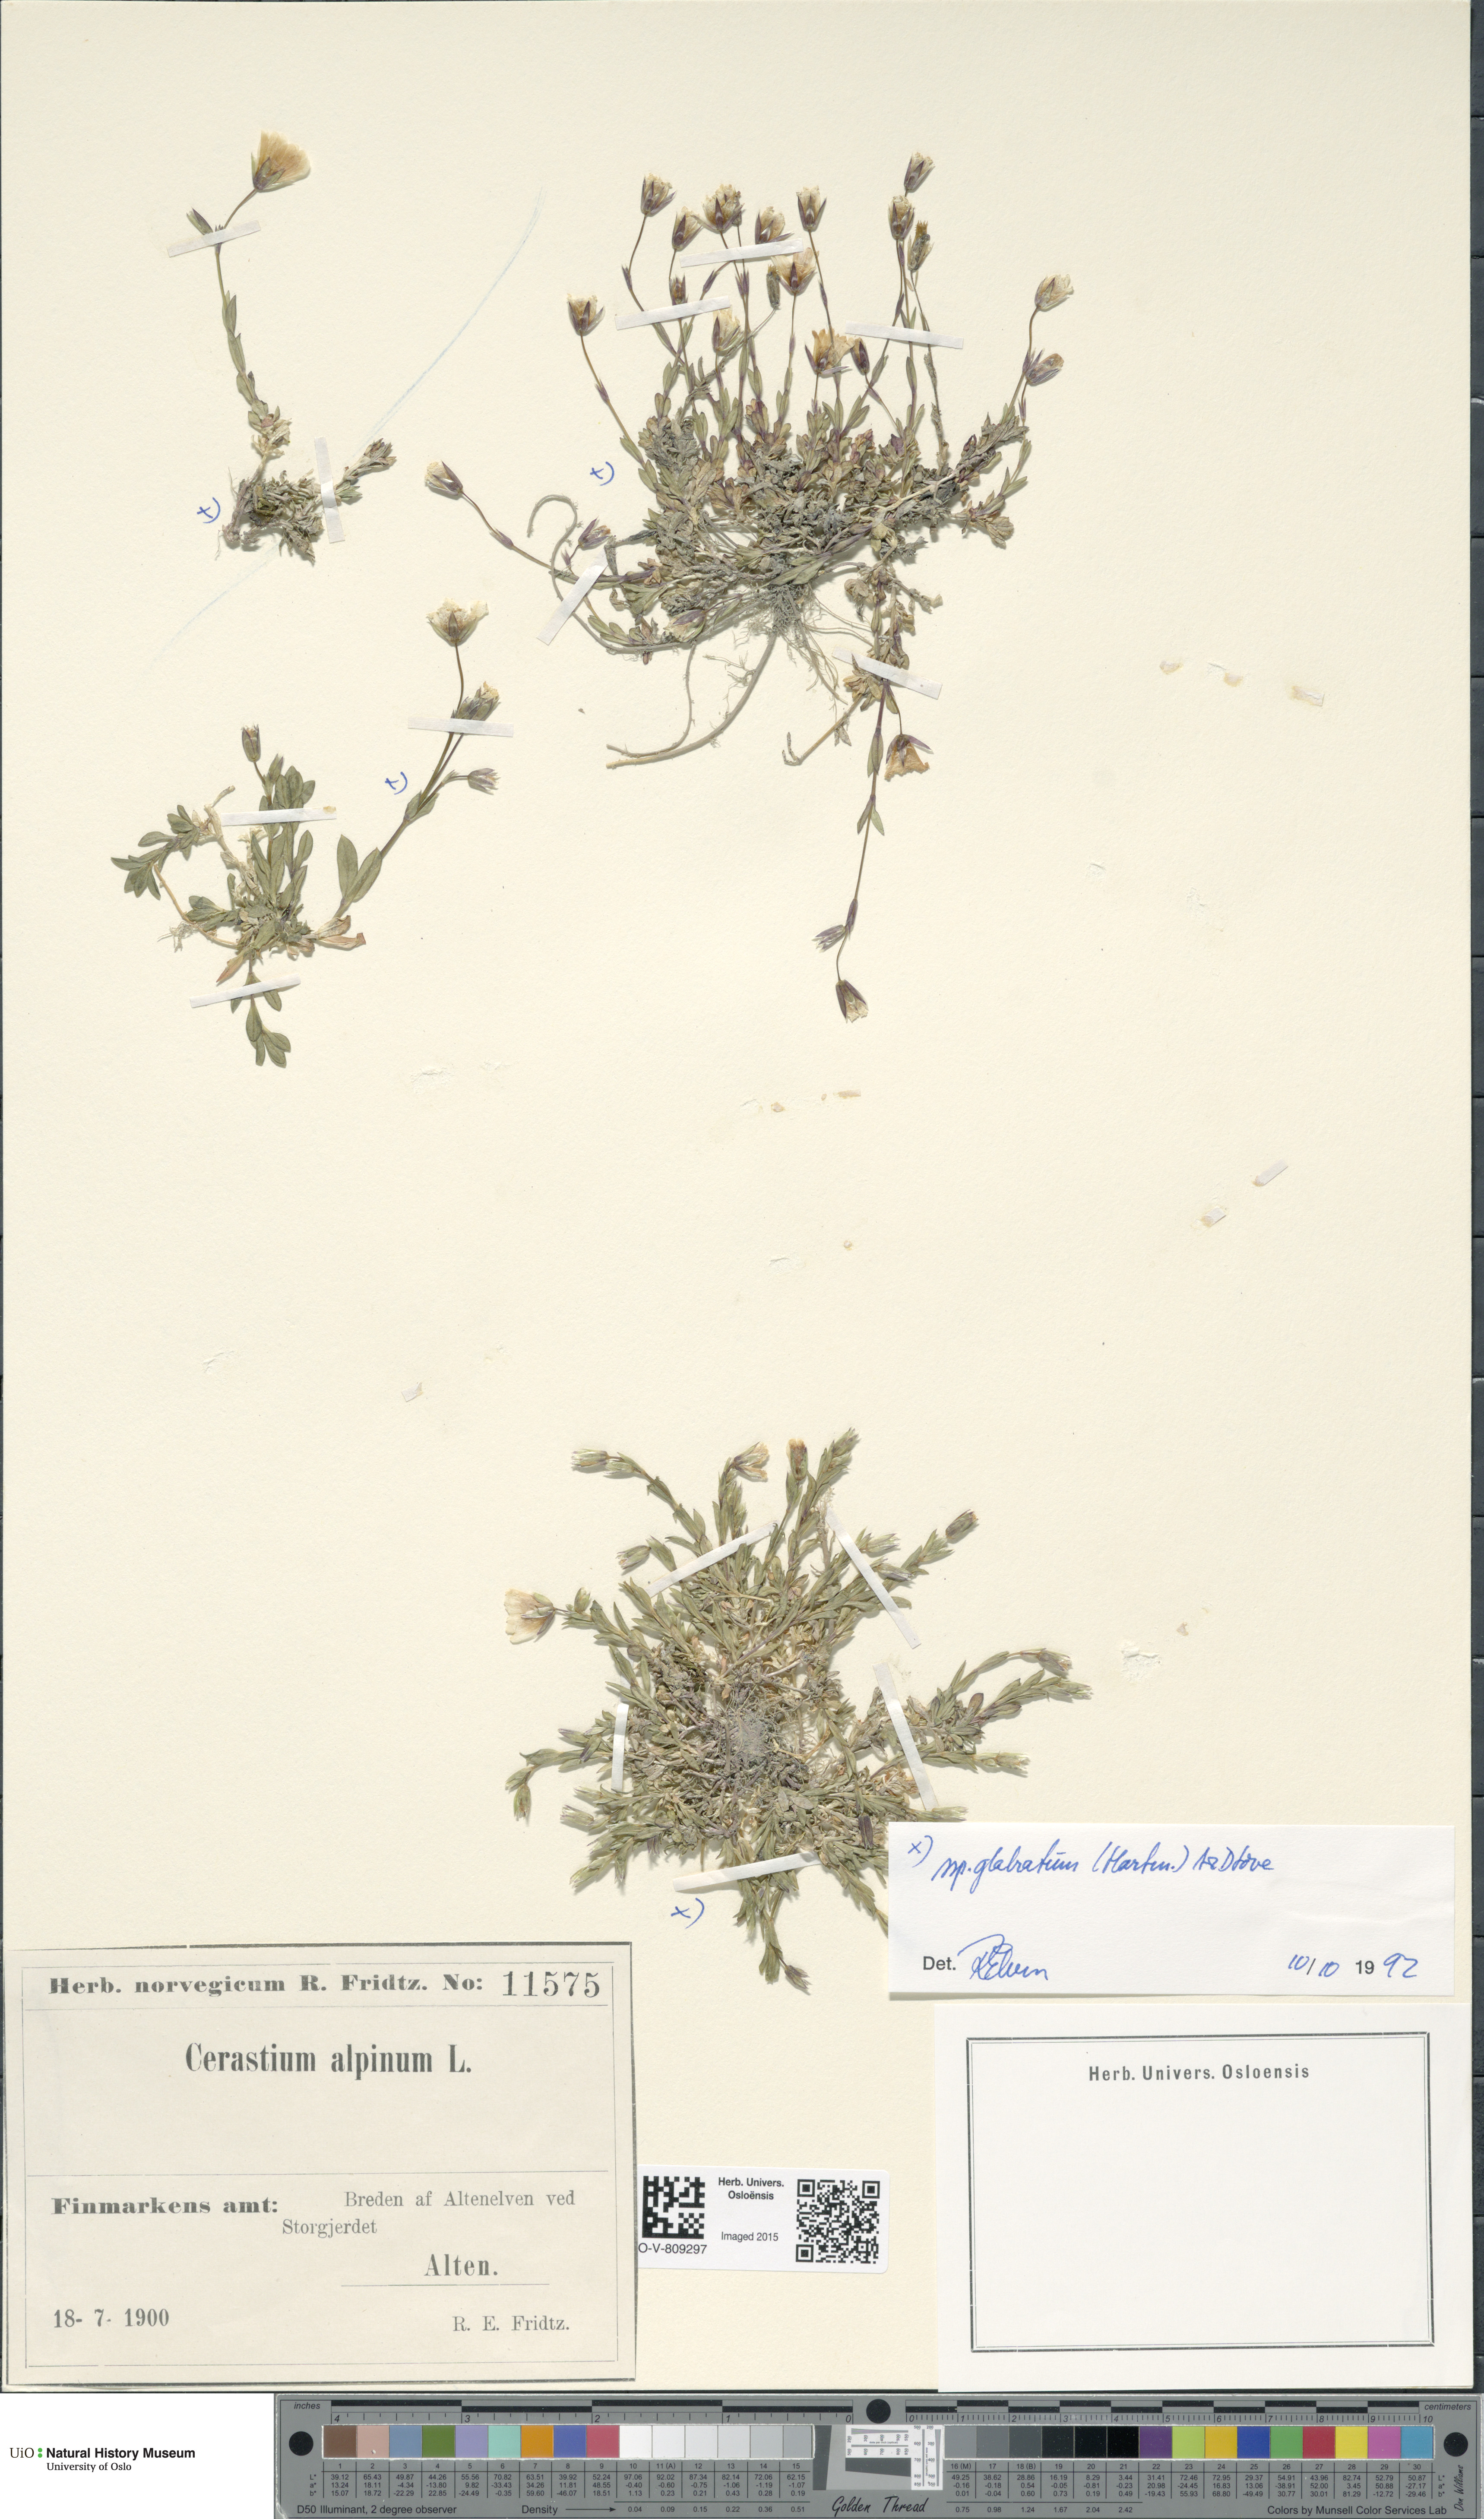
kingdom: Plantae
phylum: Tracheophyta
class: Magnoliopsida
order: Caryophyllales
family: Caryophyllaceae
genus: Cerastium
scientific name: Cerastium alpinum
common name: Alpine mouse-ear
